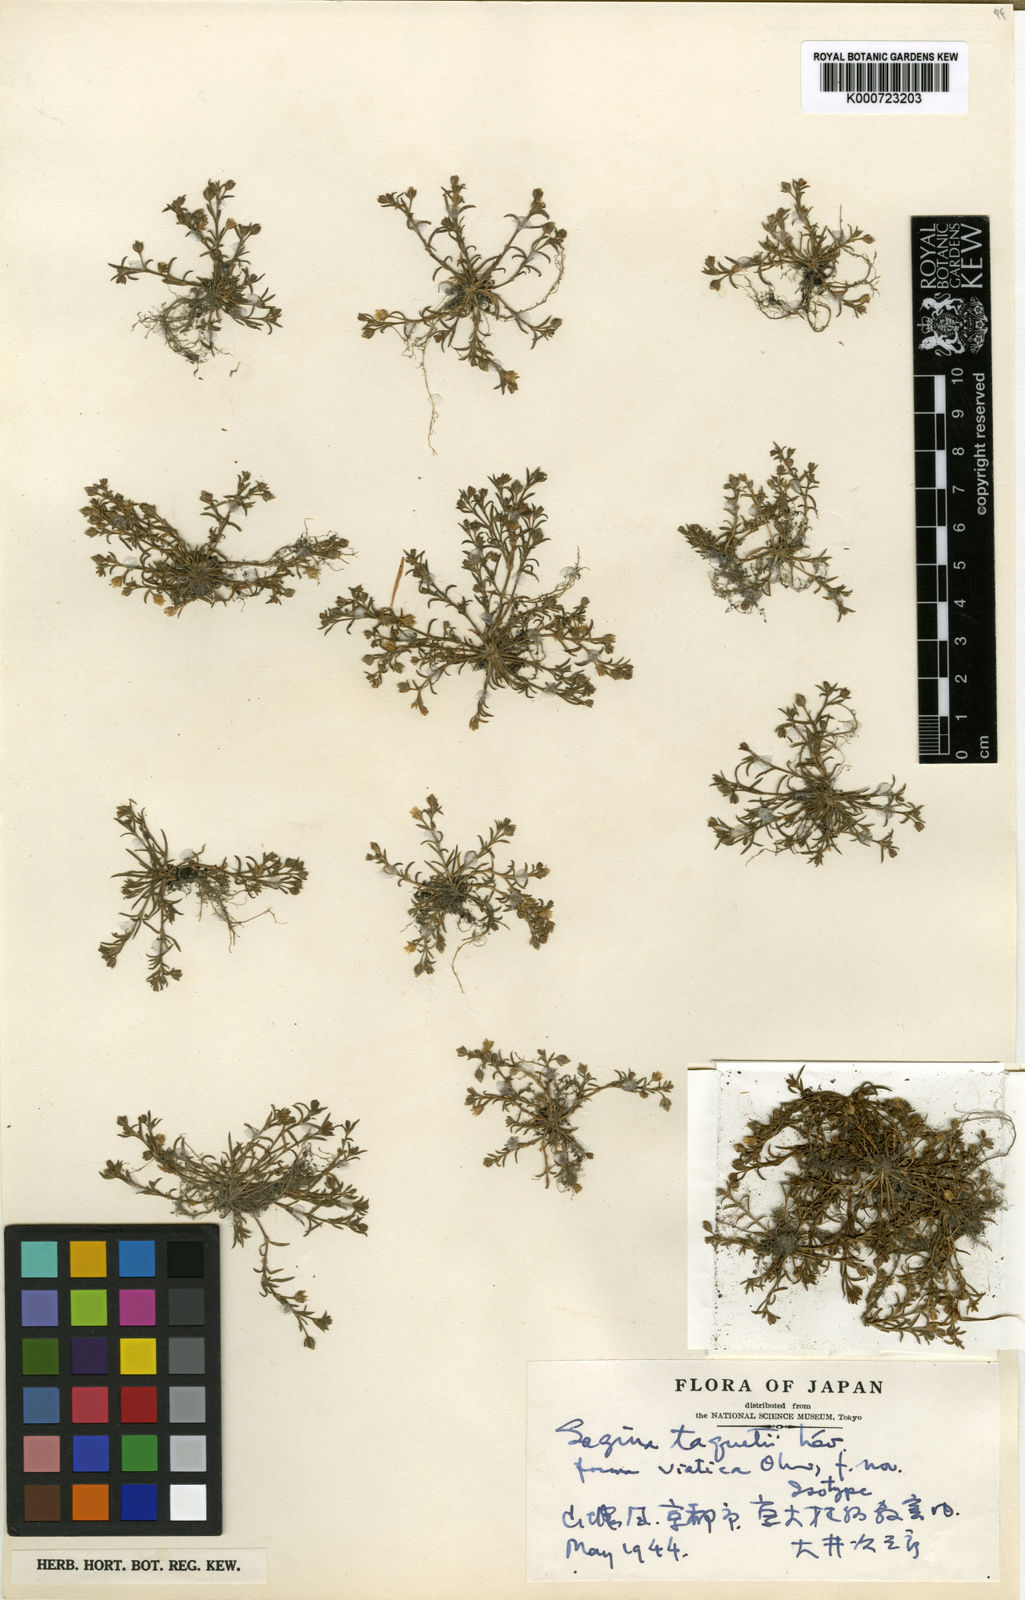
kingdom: Plantae
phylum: Tracheophyta
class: Magnoliopsida
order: Caryophyllales
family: Caryophyllaceae
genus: Sagina
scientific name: Sagina
